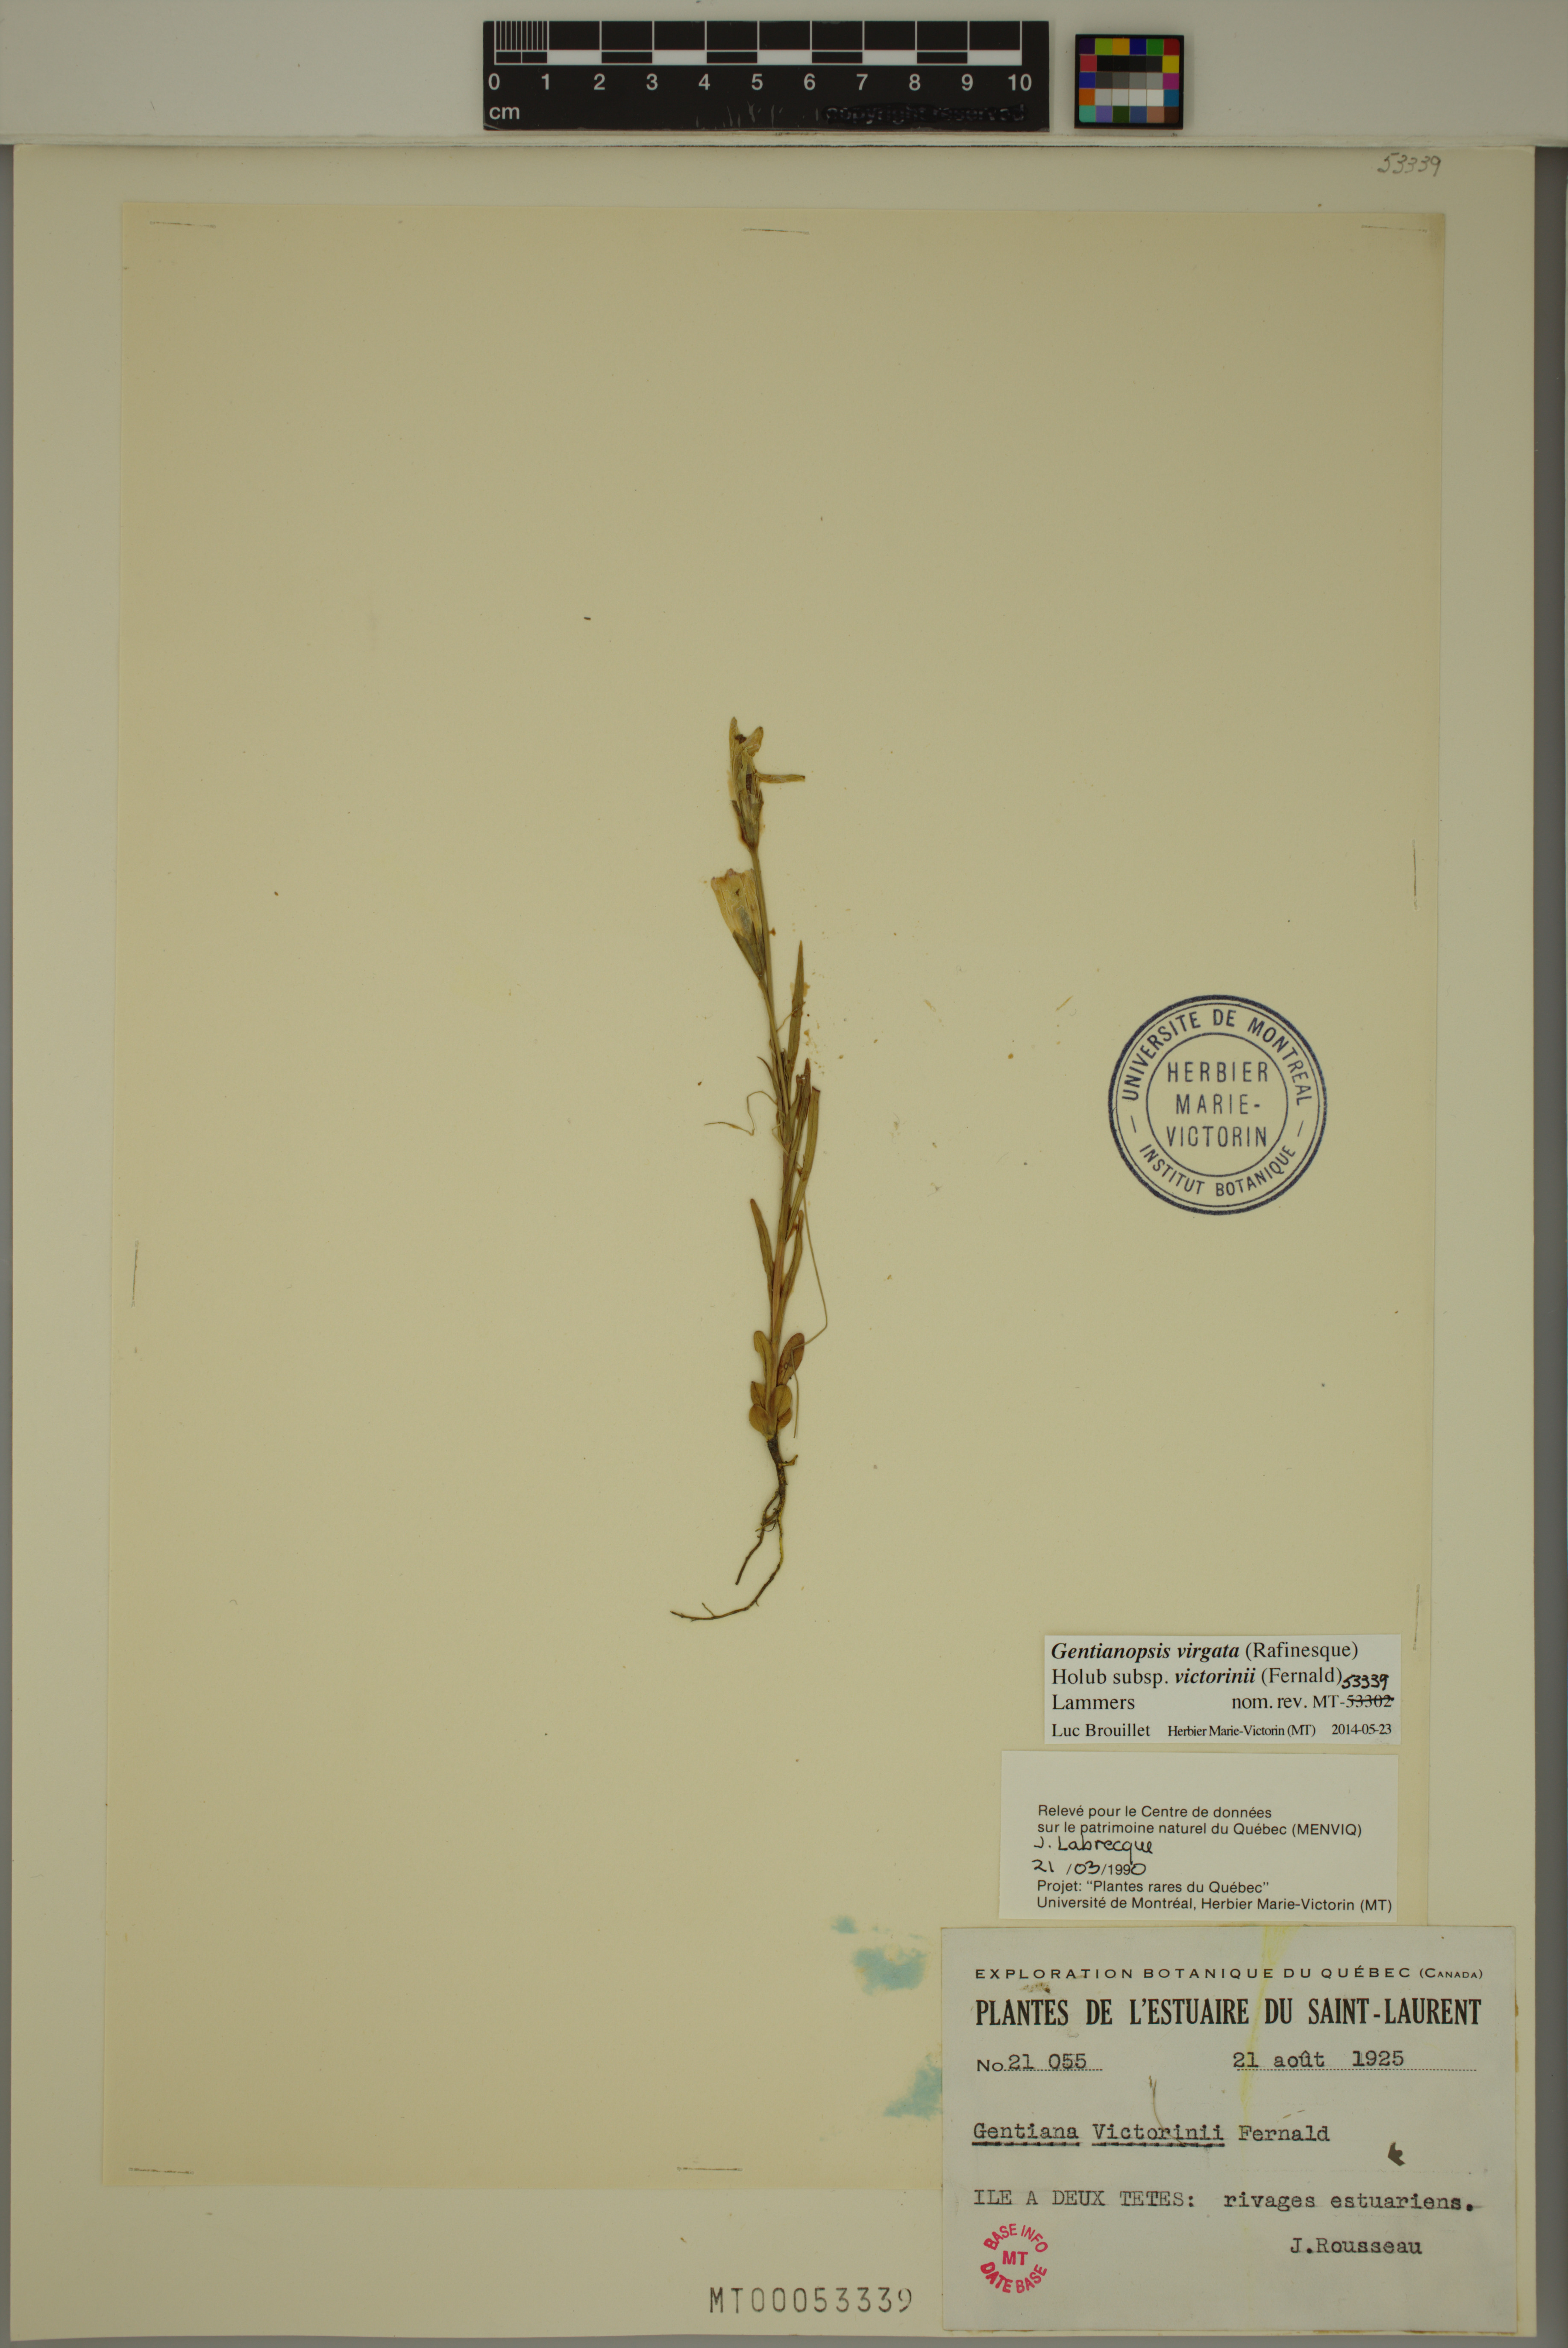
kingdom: Plantae
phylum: Tracheophyta
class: Magnoliopsida
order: Gentianales
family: Gentianaceae
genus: Gentianopsis
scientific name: Gentianopsis victorinii
